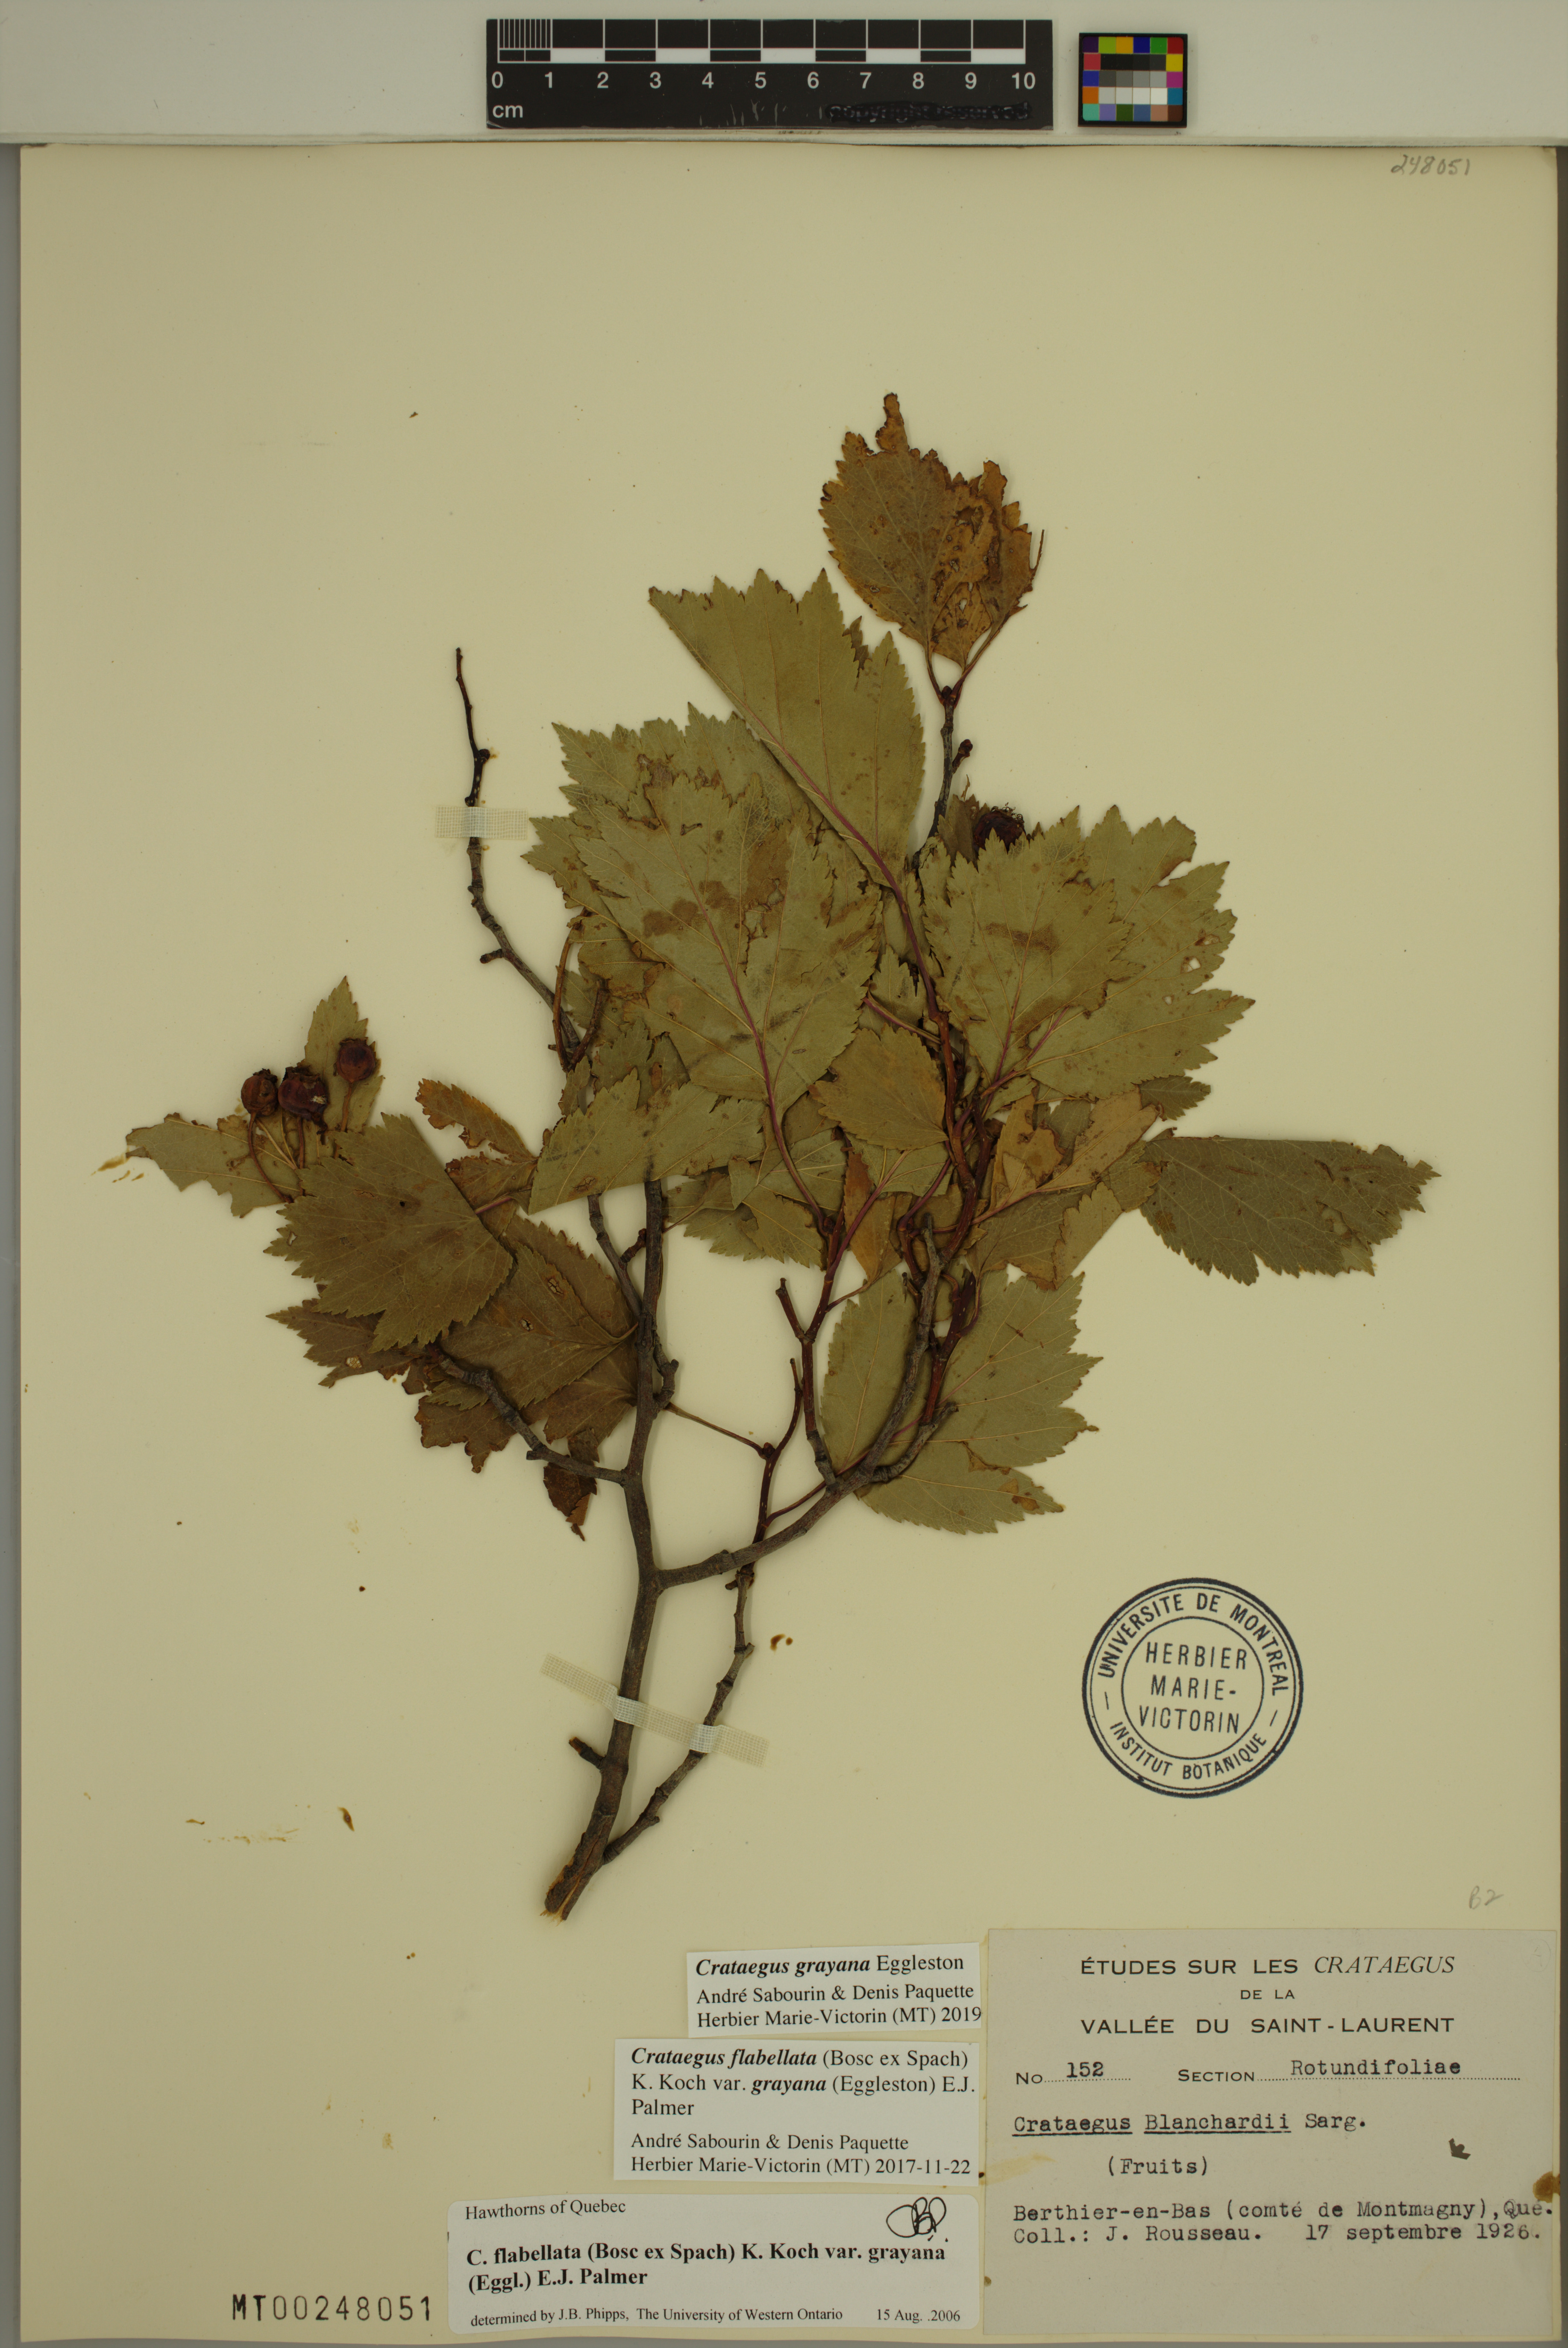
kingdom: Plantae
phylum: Tracheophyta
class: Magnoliopsida
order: Rosales
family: Rosaceae
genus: Crataegus
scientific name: Crataegus schuettei
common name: Schuette's hawthorn
